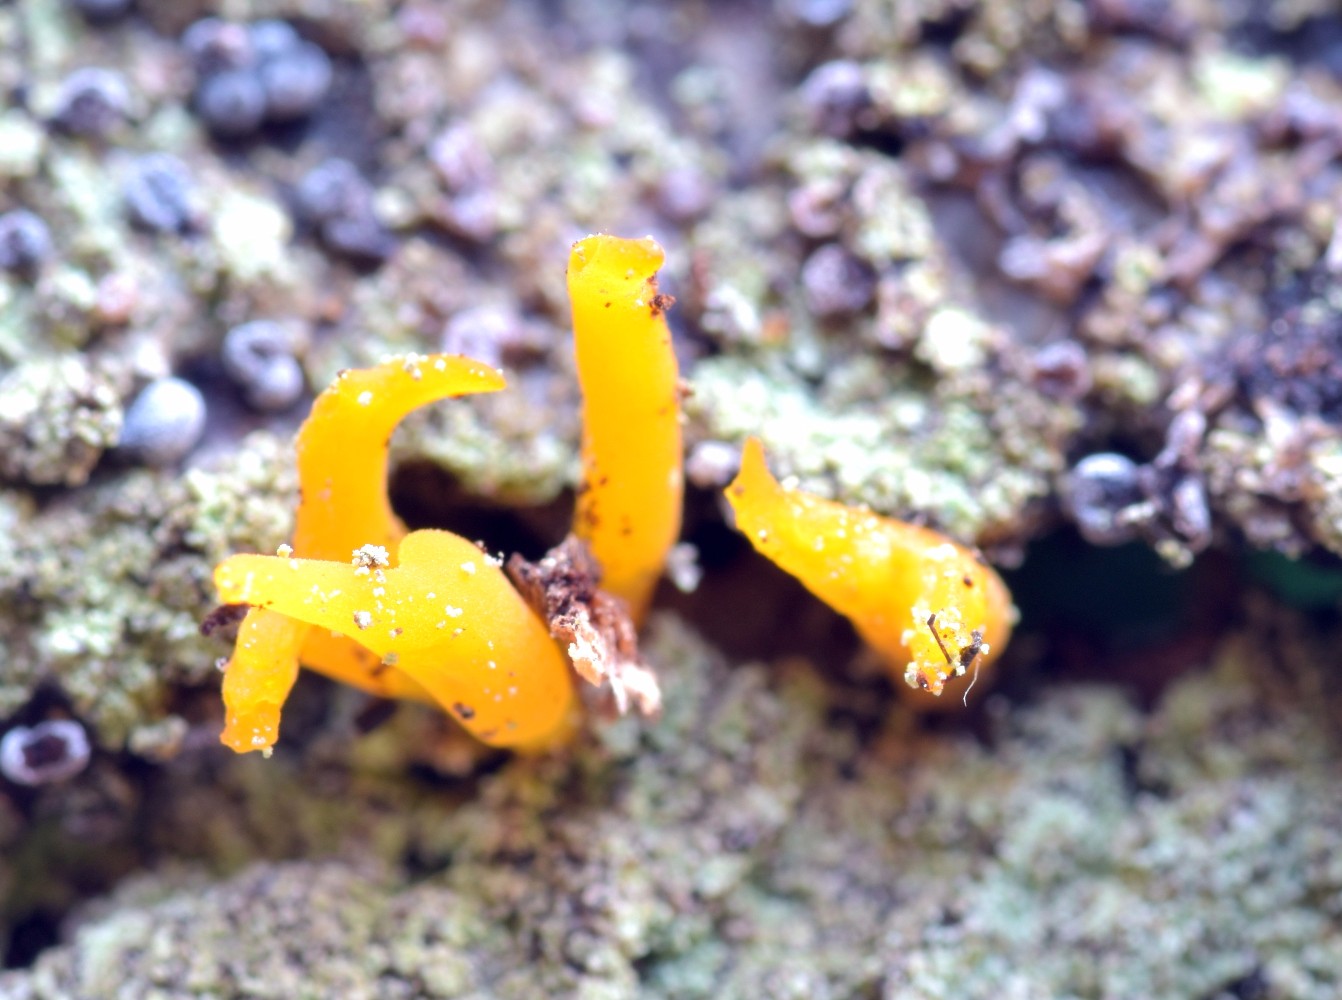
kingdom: Fungi
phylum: Basidiomycota
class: Dacrymycetes
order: Dacrymycetales
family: Dacrymycetaceae
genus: Calocera
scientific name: Calocera cornea
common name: liden guldgaffel
